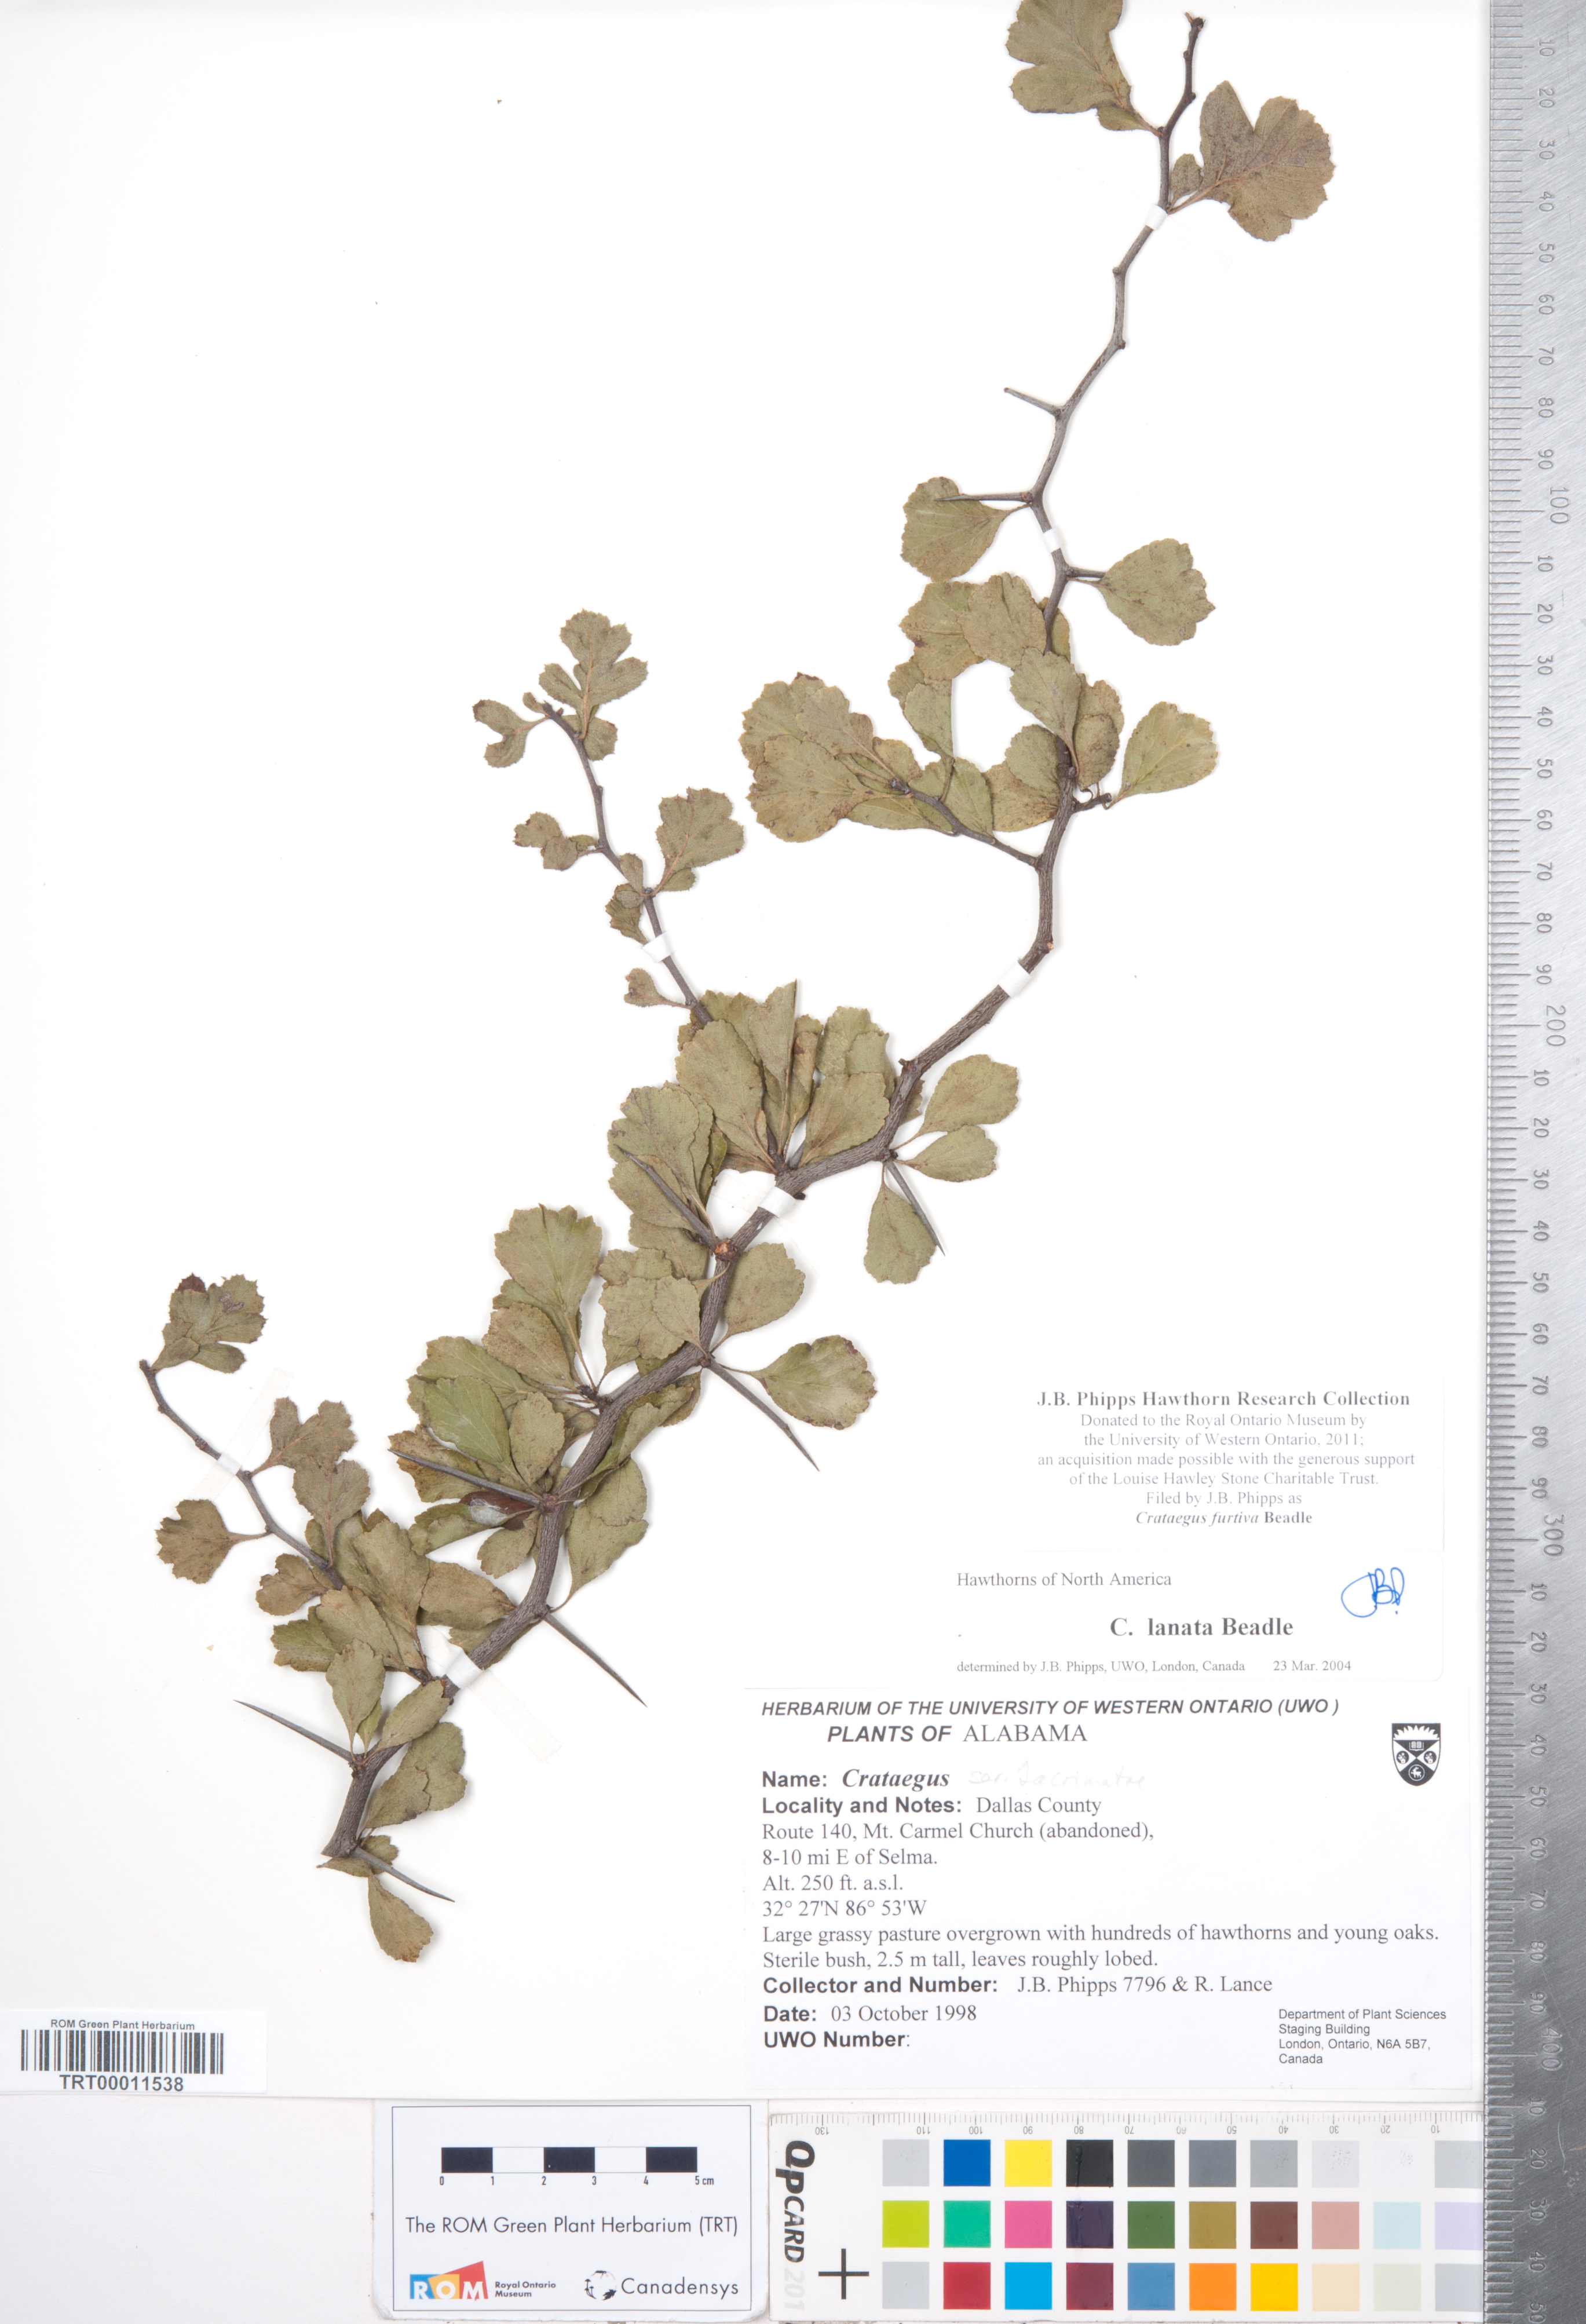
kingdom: Plantae
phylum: Tracheophyta
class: Magnoliopsida
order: Rosales
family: Rosaceae
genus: Crataegus
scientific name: Crataegus senta
